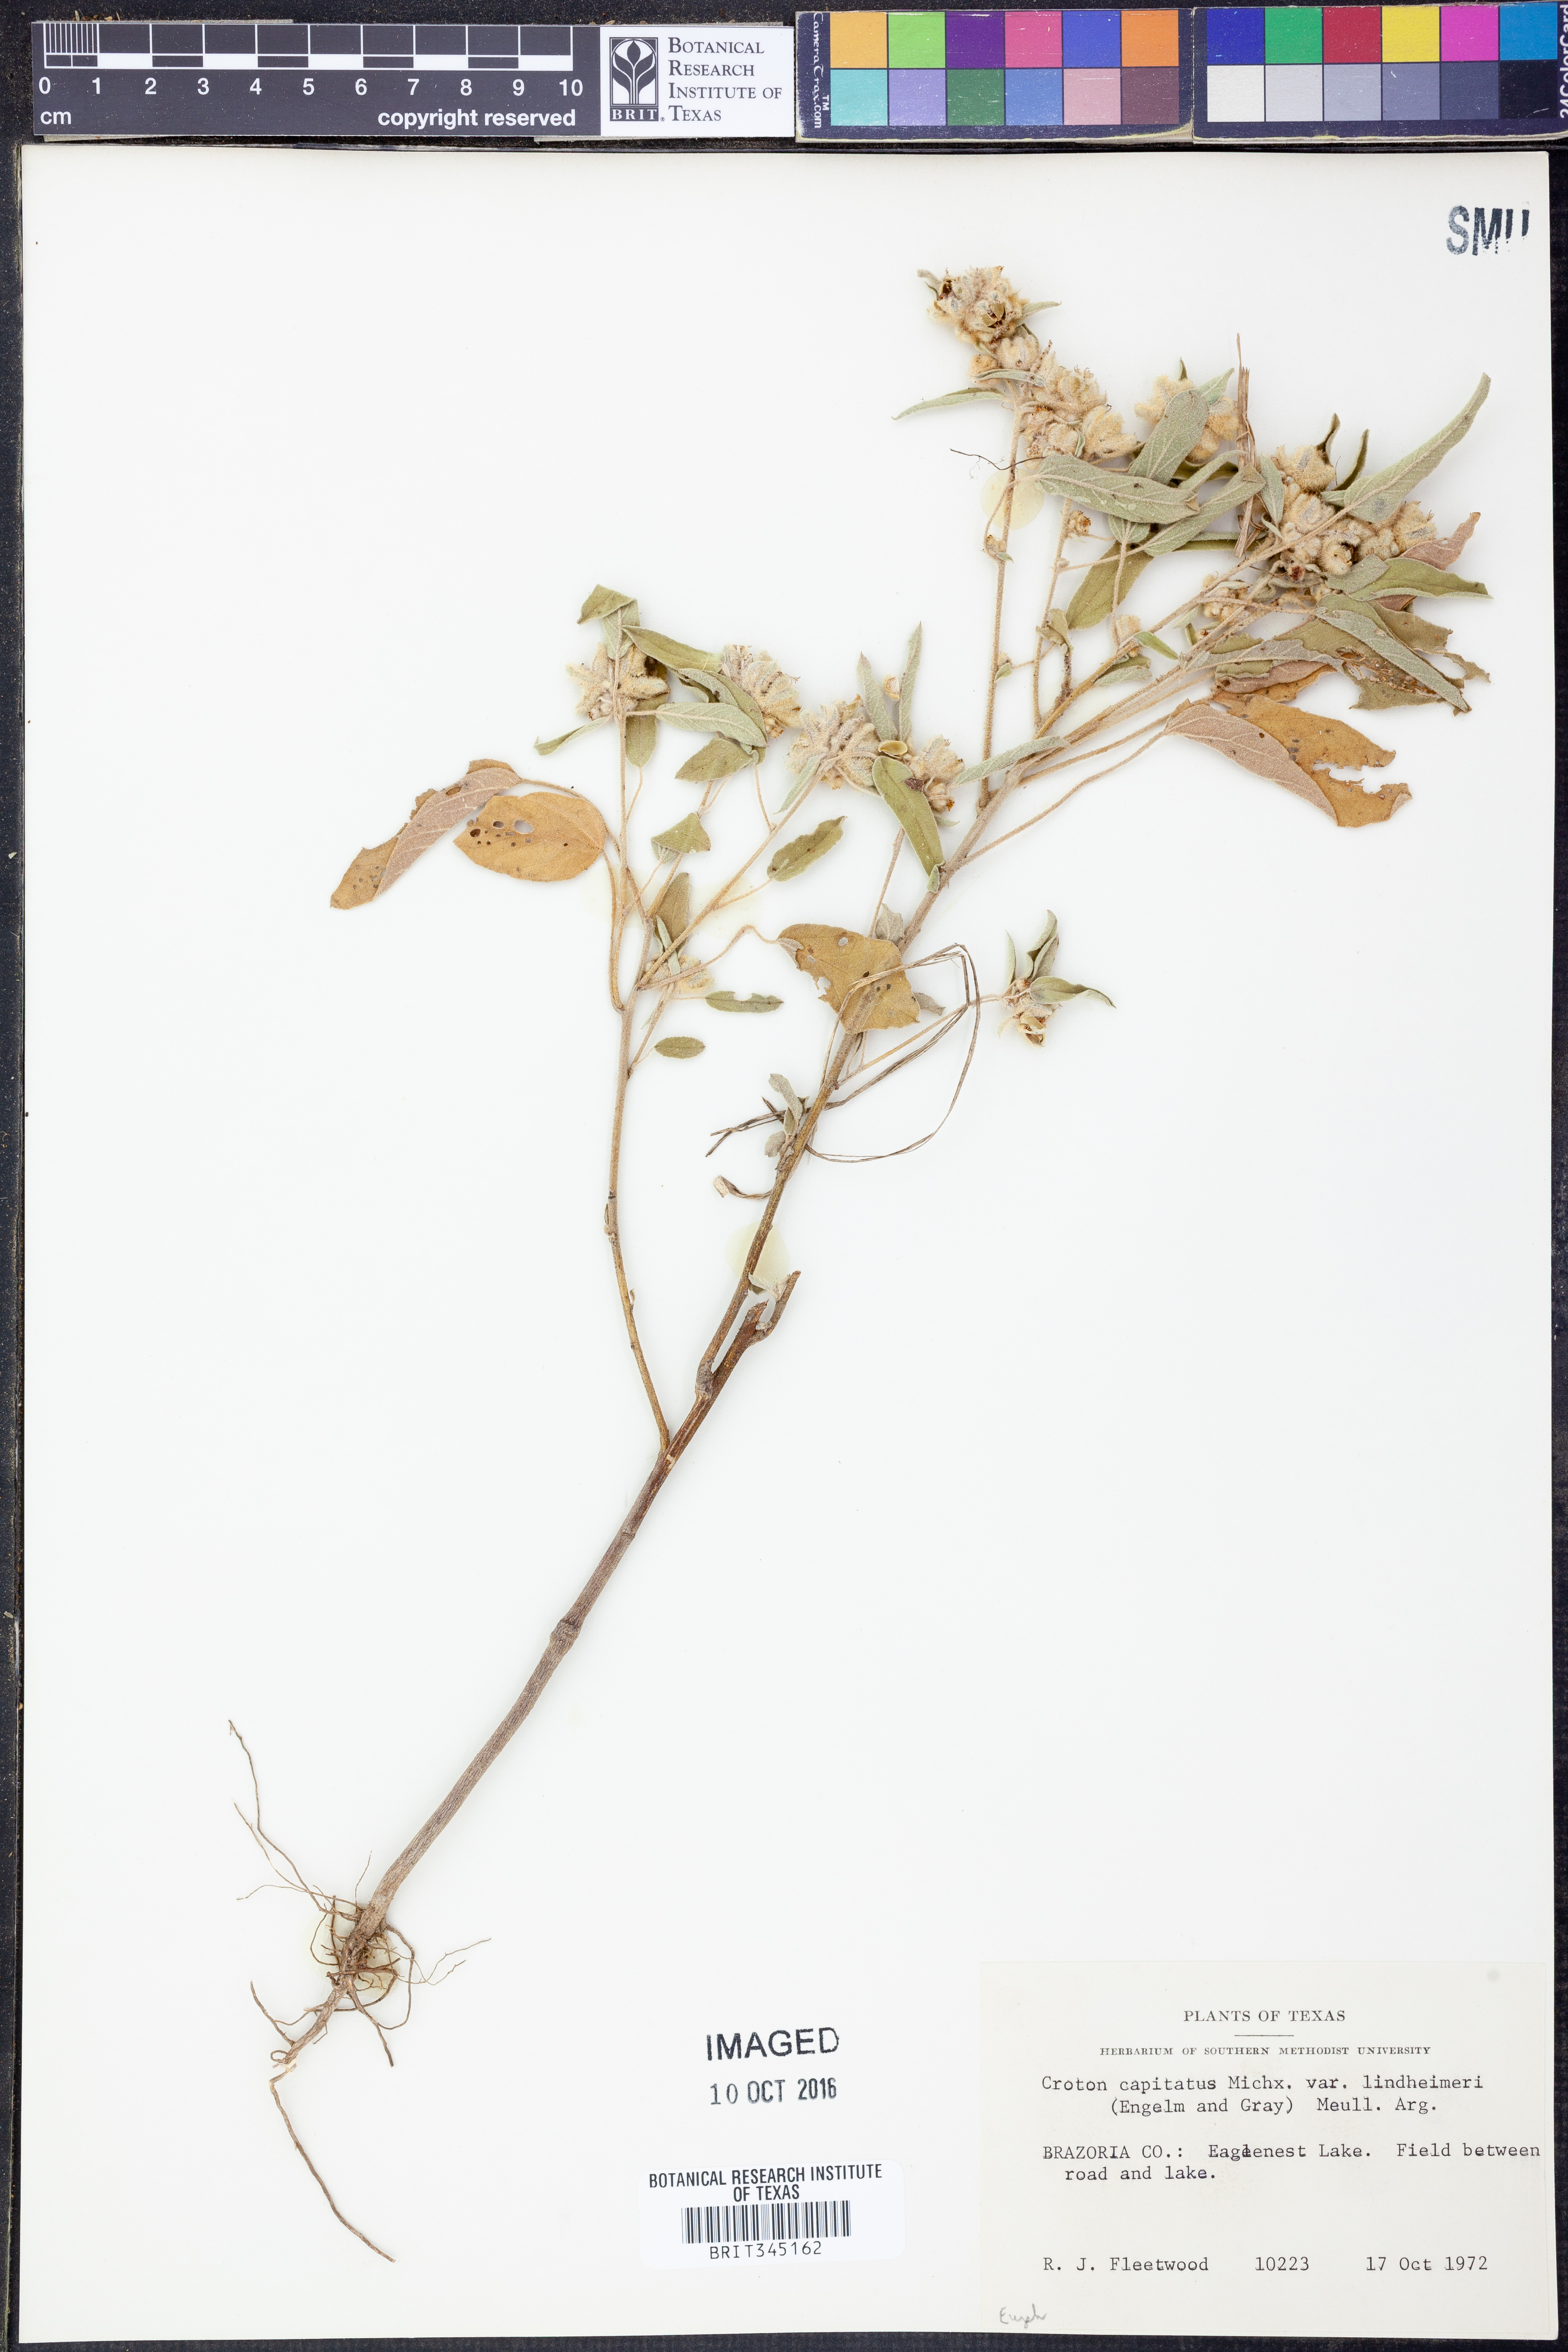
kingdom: Plantae
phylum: Tracheophyta
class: Magnoliopsida
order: Malpighiales
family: Euphorbiaceae
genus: Croton
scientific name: Croton lindheimeri
